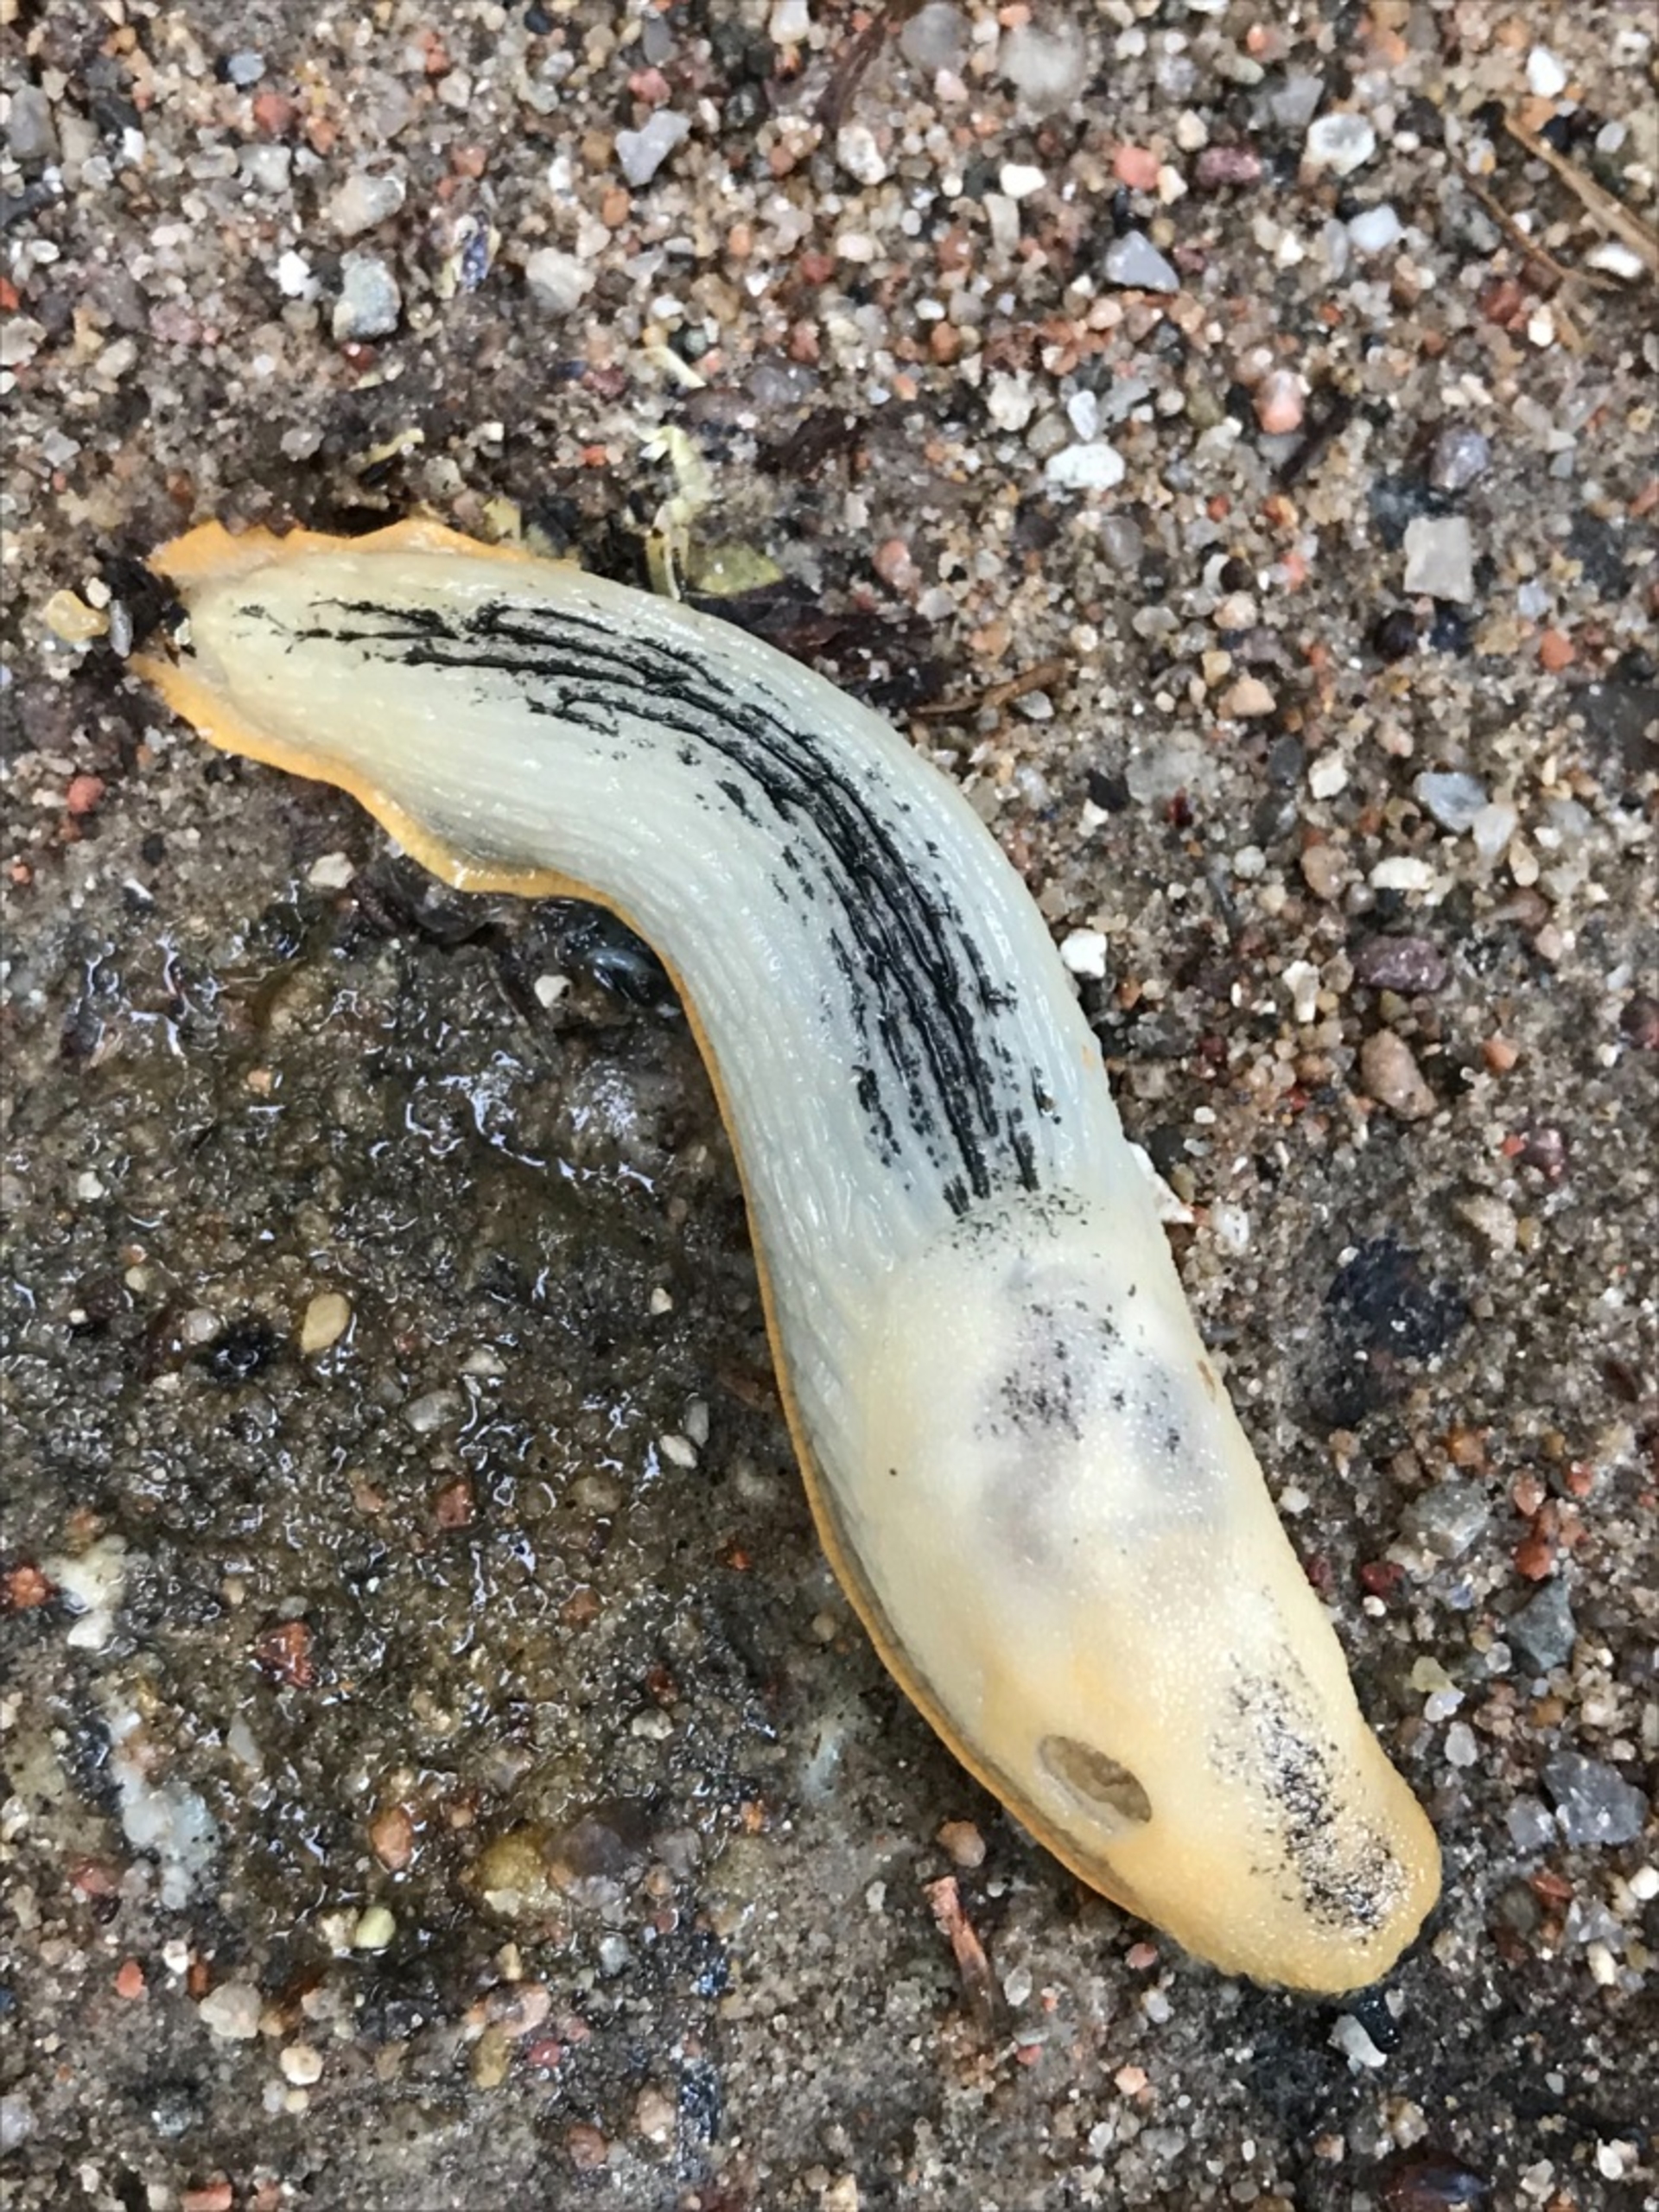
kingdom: Animalia
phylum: Mollusca
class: Gastropoda
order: Stylommatophora
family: Arionidae
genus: Arion
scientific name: Arion ater
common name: Sort skovsnegl
